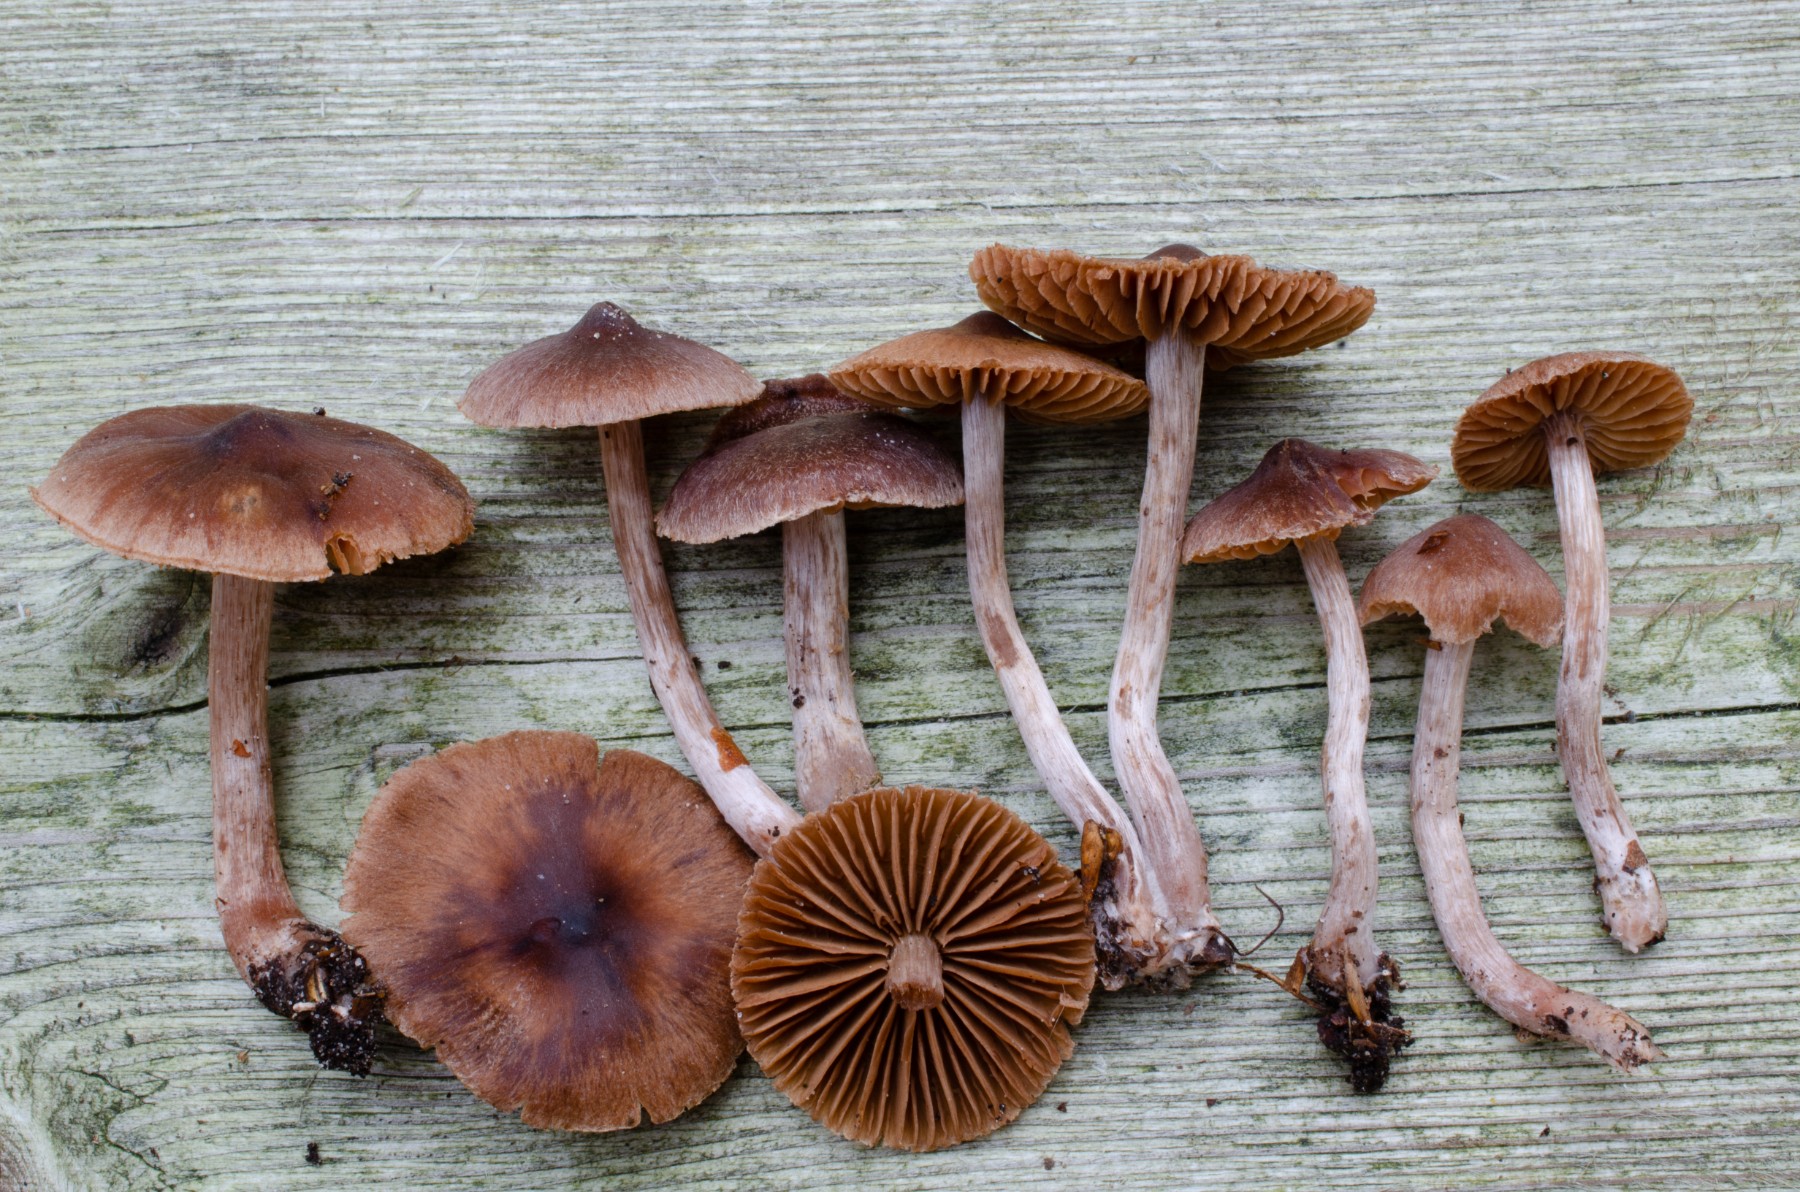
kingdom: Fungi
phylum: Basidiomycota
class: Agaricomycetes
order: Agaricales
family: Cortinariaceae
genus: Cortinarius
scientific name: Cortinarius hirtus
